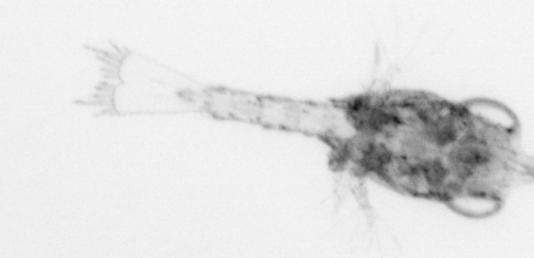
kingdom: Animalia
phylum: Arthropoda
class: Malacostraca
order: Decapoda
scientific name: Decapoda
